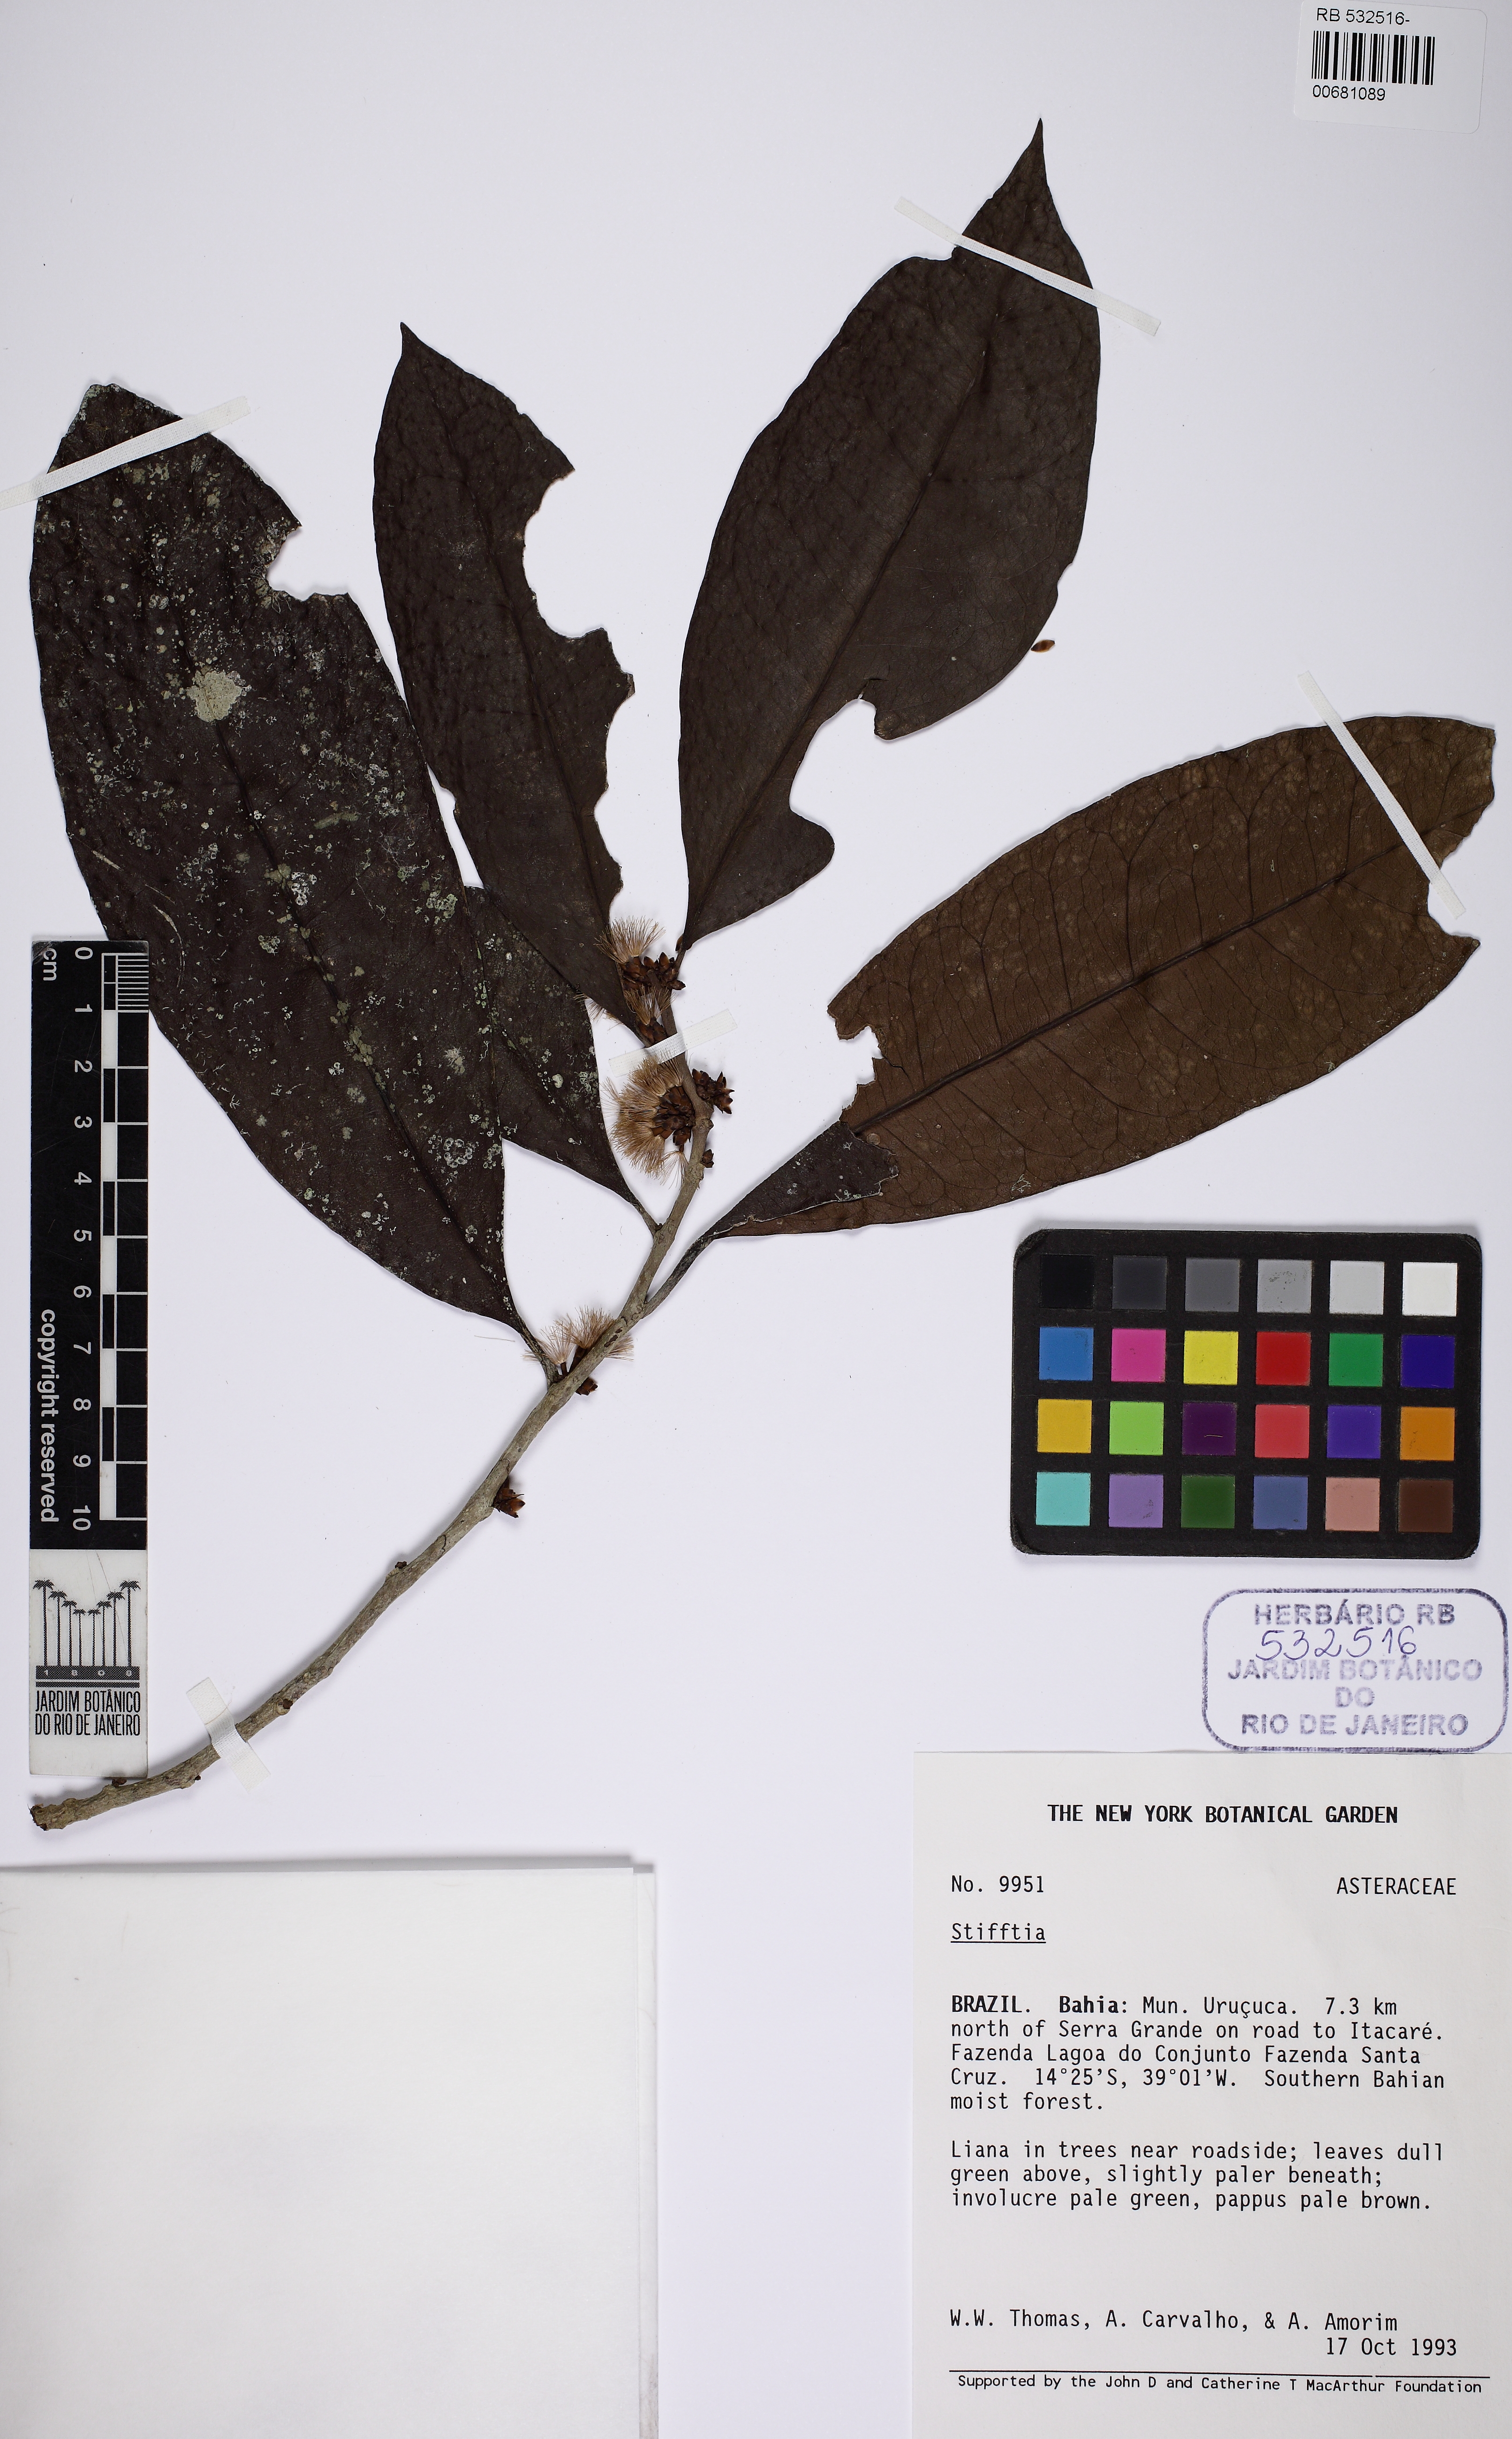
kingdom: Plantae
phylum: Tracheophyta
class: Magnoliopsida
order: Asterales
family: Asteraceae
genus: Piptocarpha
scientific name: Piptocarpha riedelii
